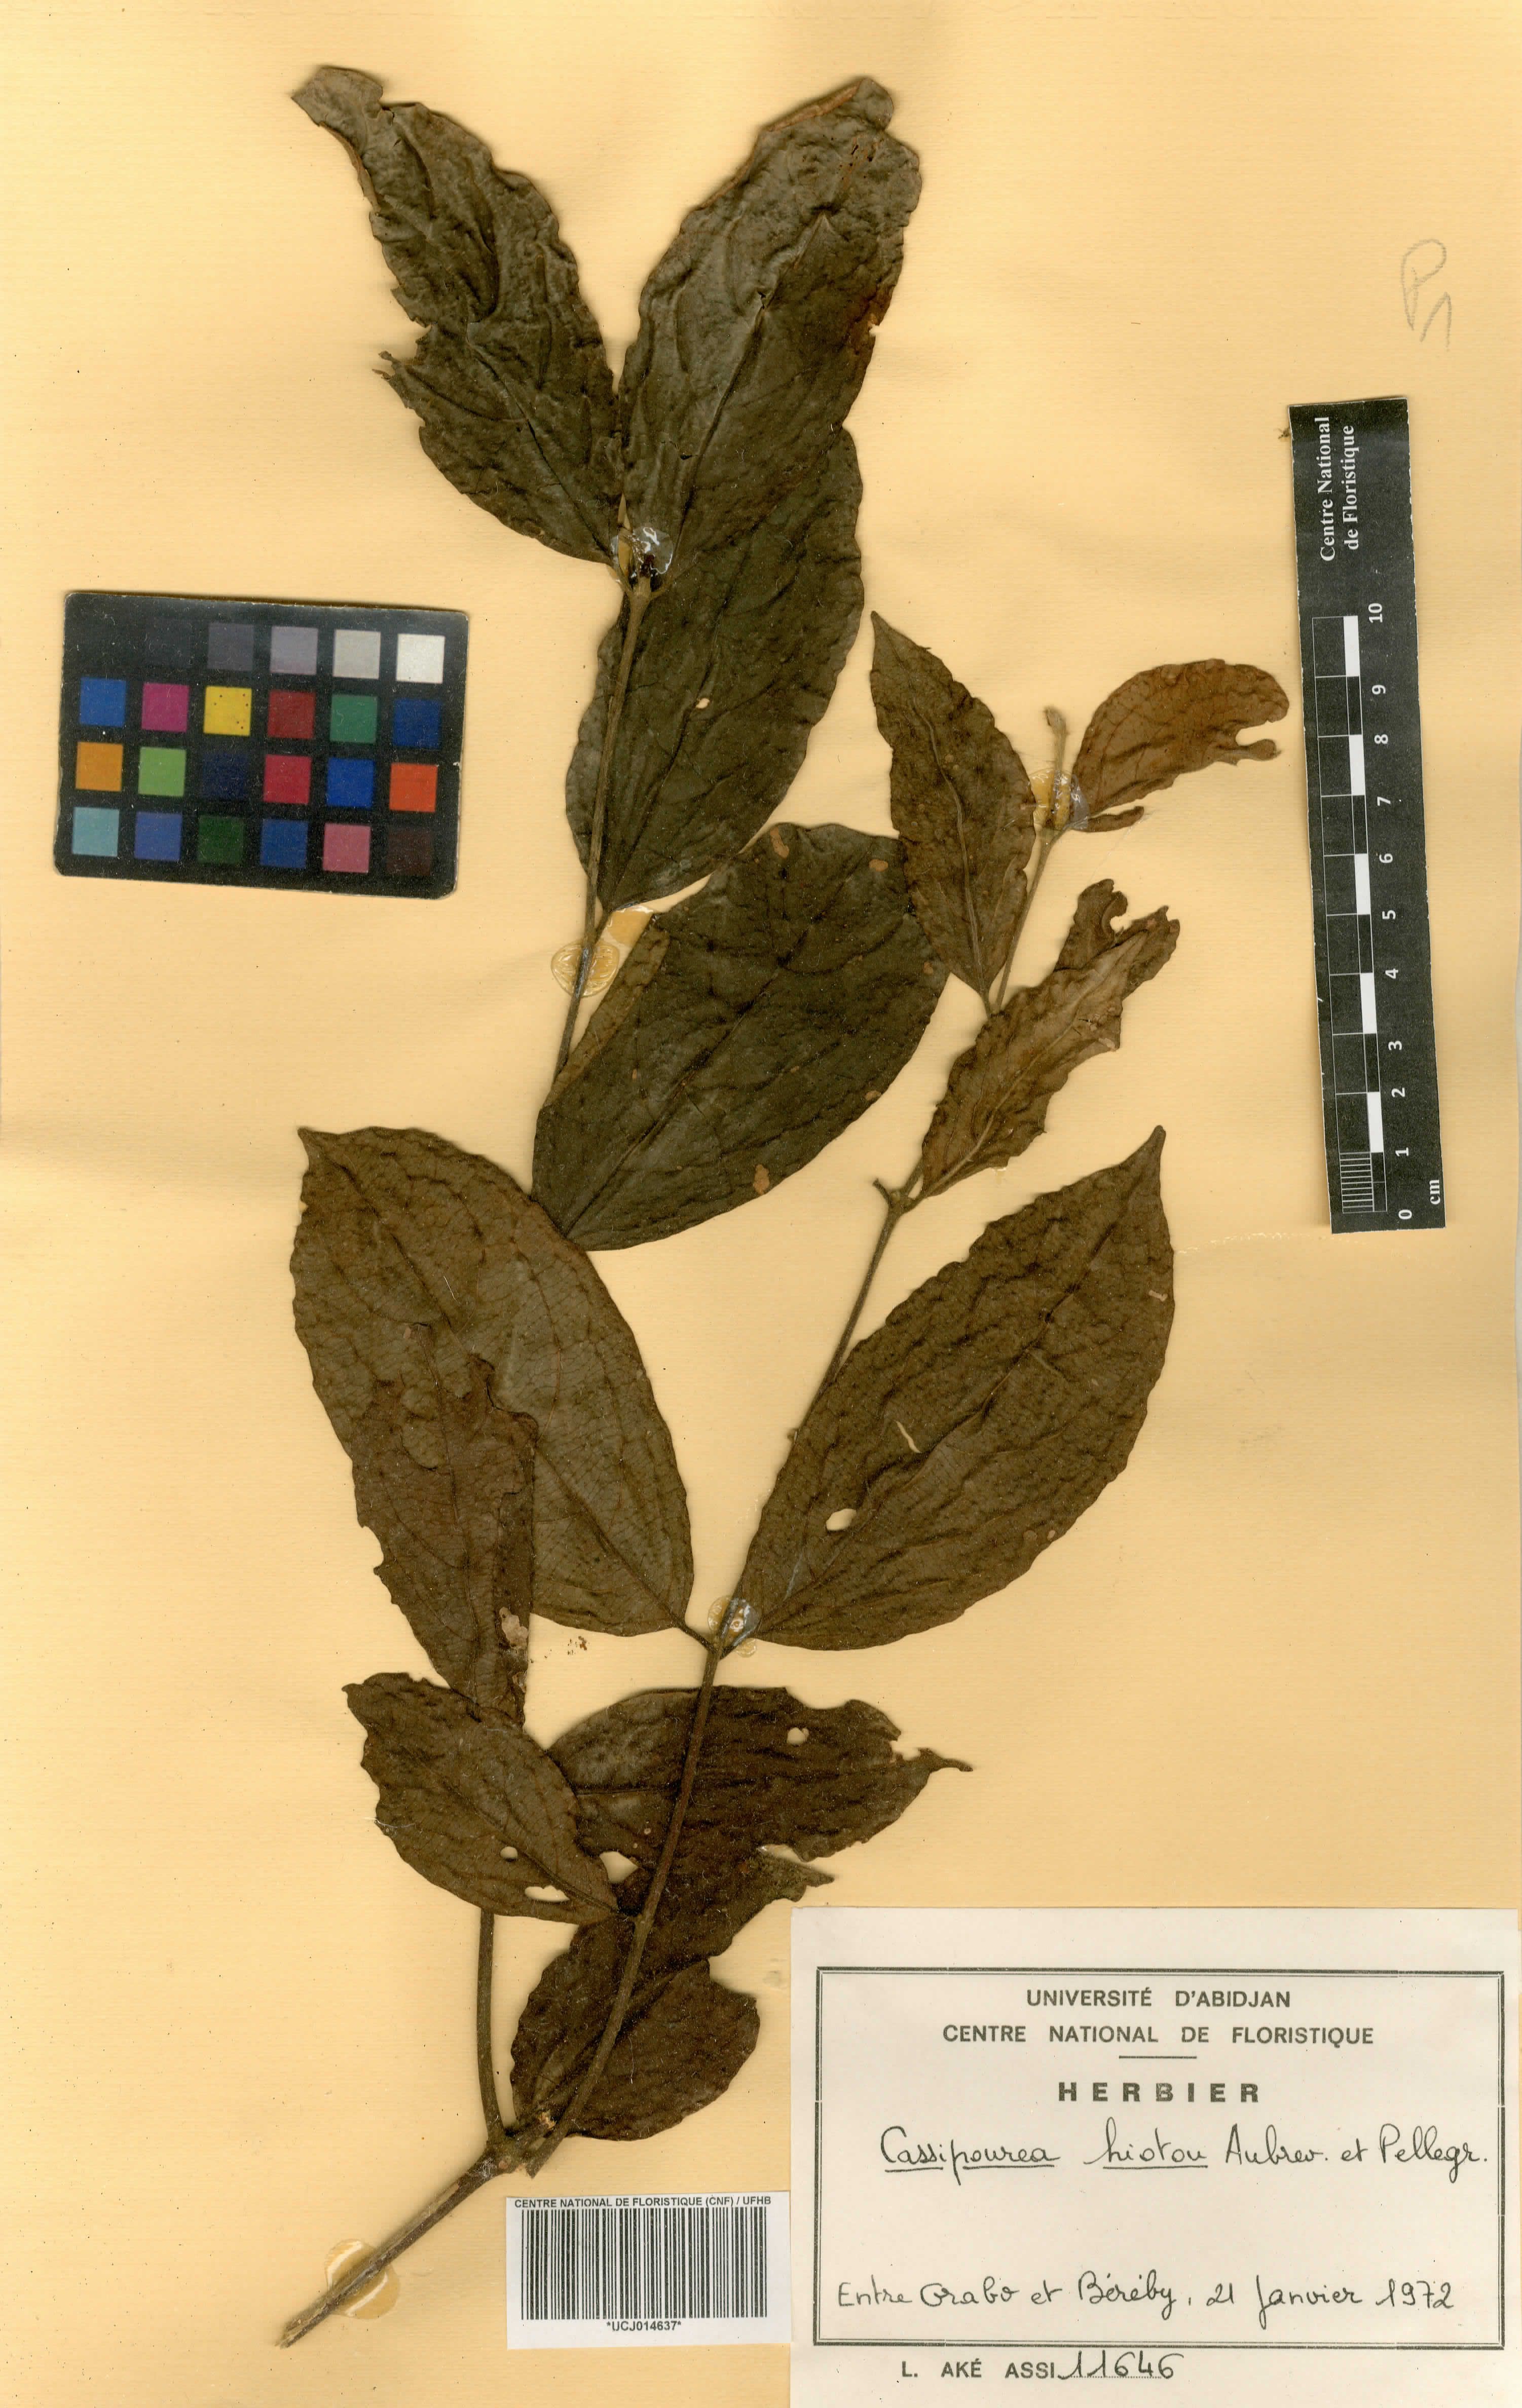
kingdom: Plantae
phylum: Tracheophyta
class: Magnoliopsida
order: Malpighiales
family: Rhizophoraceae
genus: Cassipourea
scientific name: Cassipourea gummiflua
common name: Large-leaved onionwood
